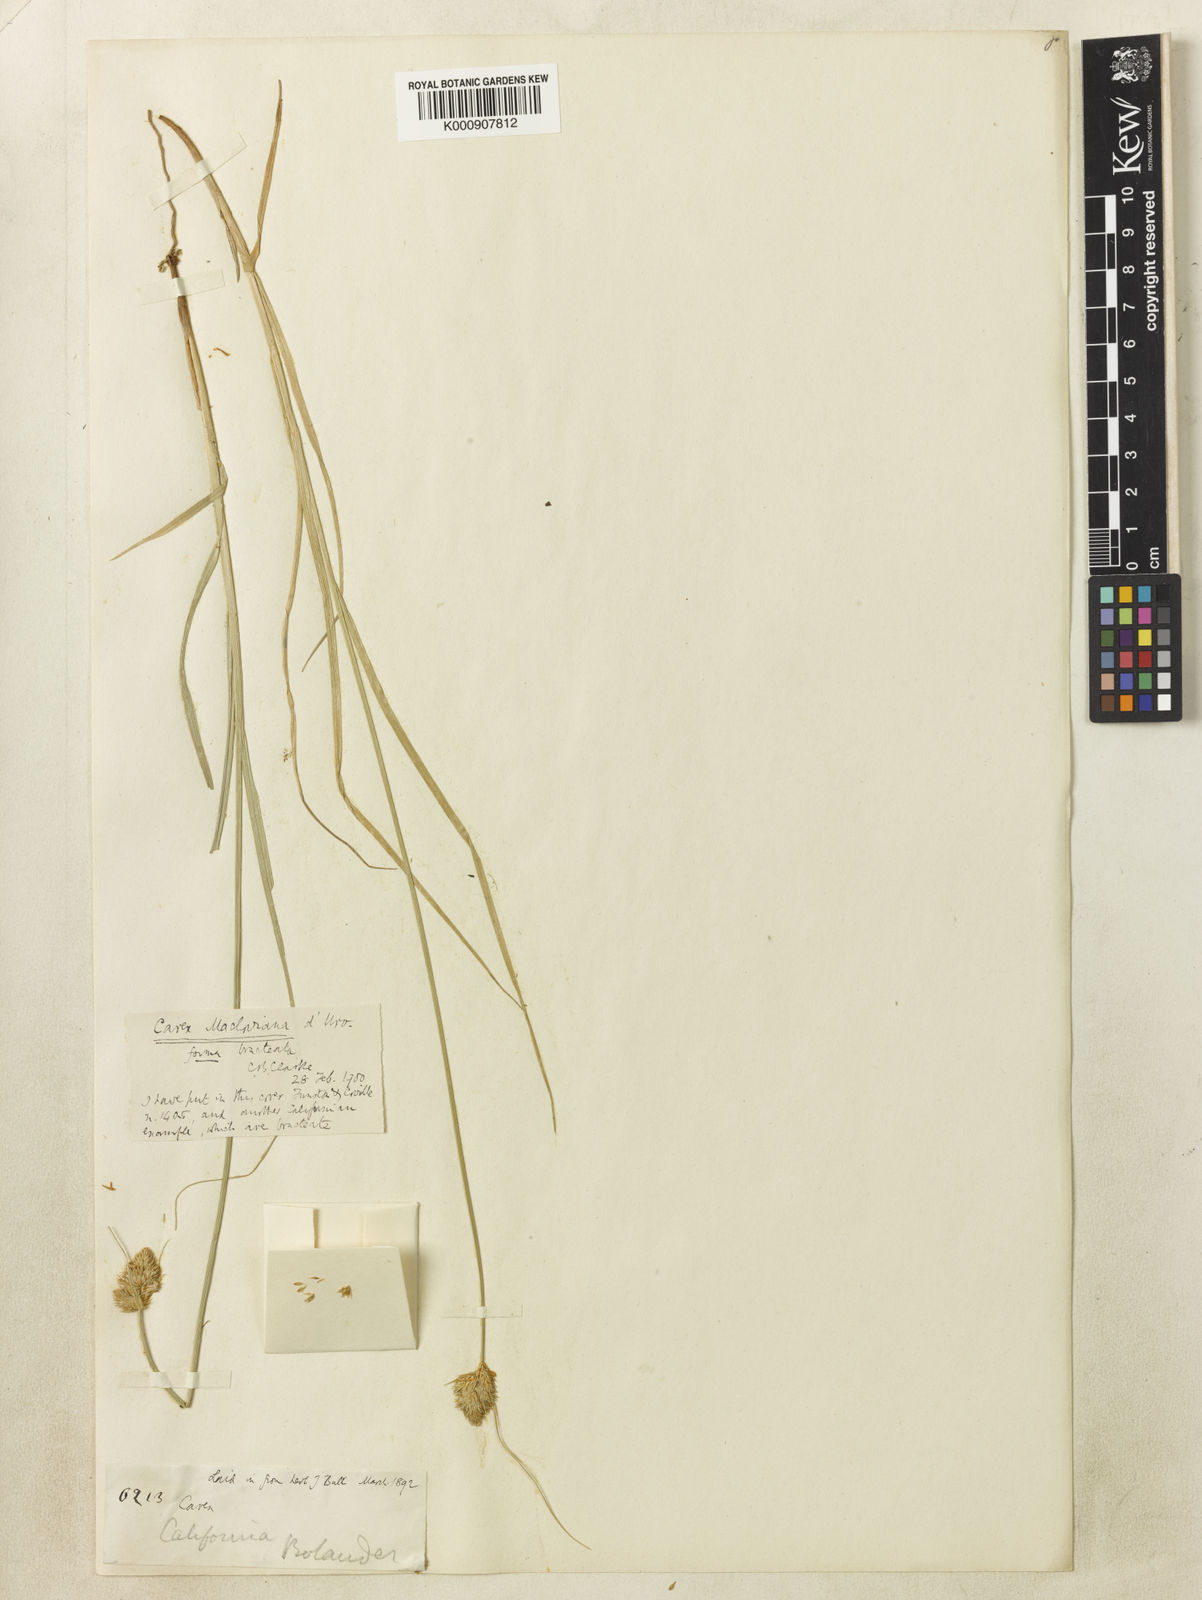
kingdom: Plantae
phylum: Tracheophyta
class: Liliopsida
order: Poales
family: Cyperaceae
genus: Carex
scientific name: Carex athrostachya
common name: Slenderbeak sedge
